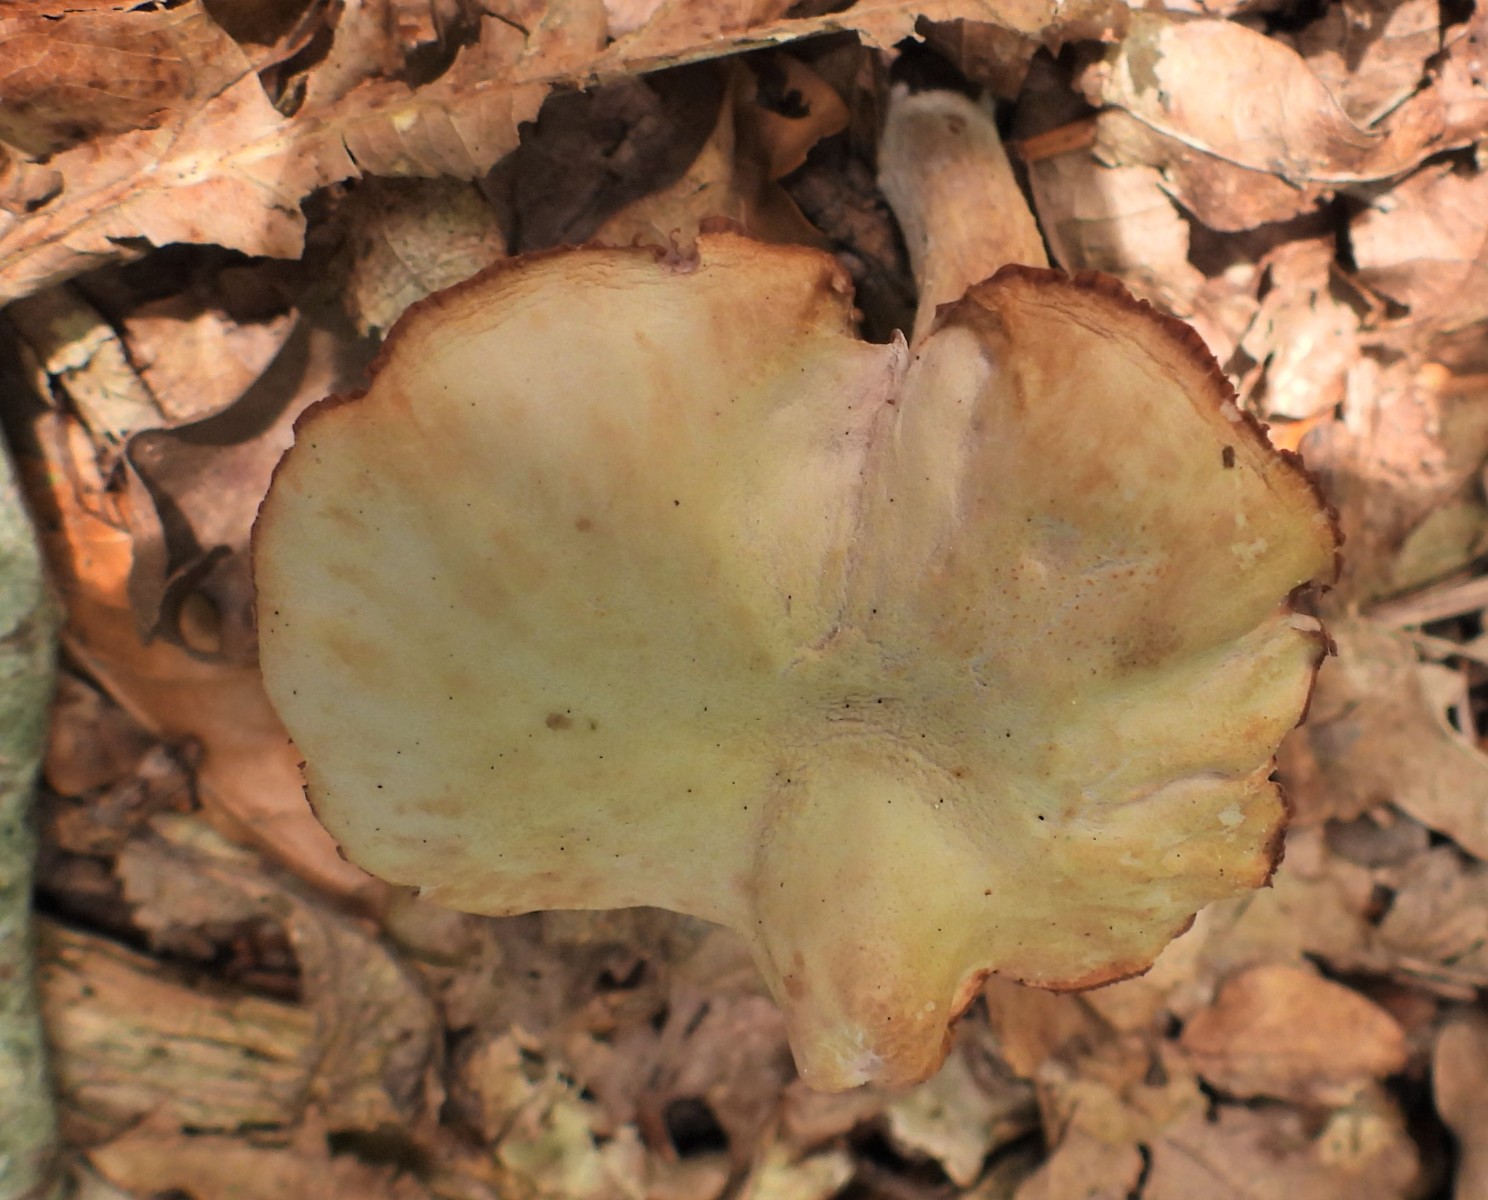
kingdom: Fungi
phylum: Basidiomycota
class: Agaricomycetes
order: Agaricales
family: Hydnangiaceae
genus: Laccaria
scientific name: Laccaria amethystina
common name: violet ametysthat
